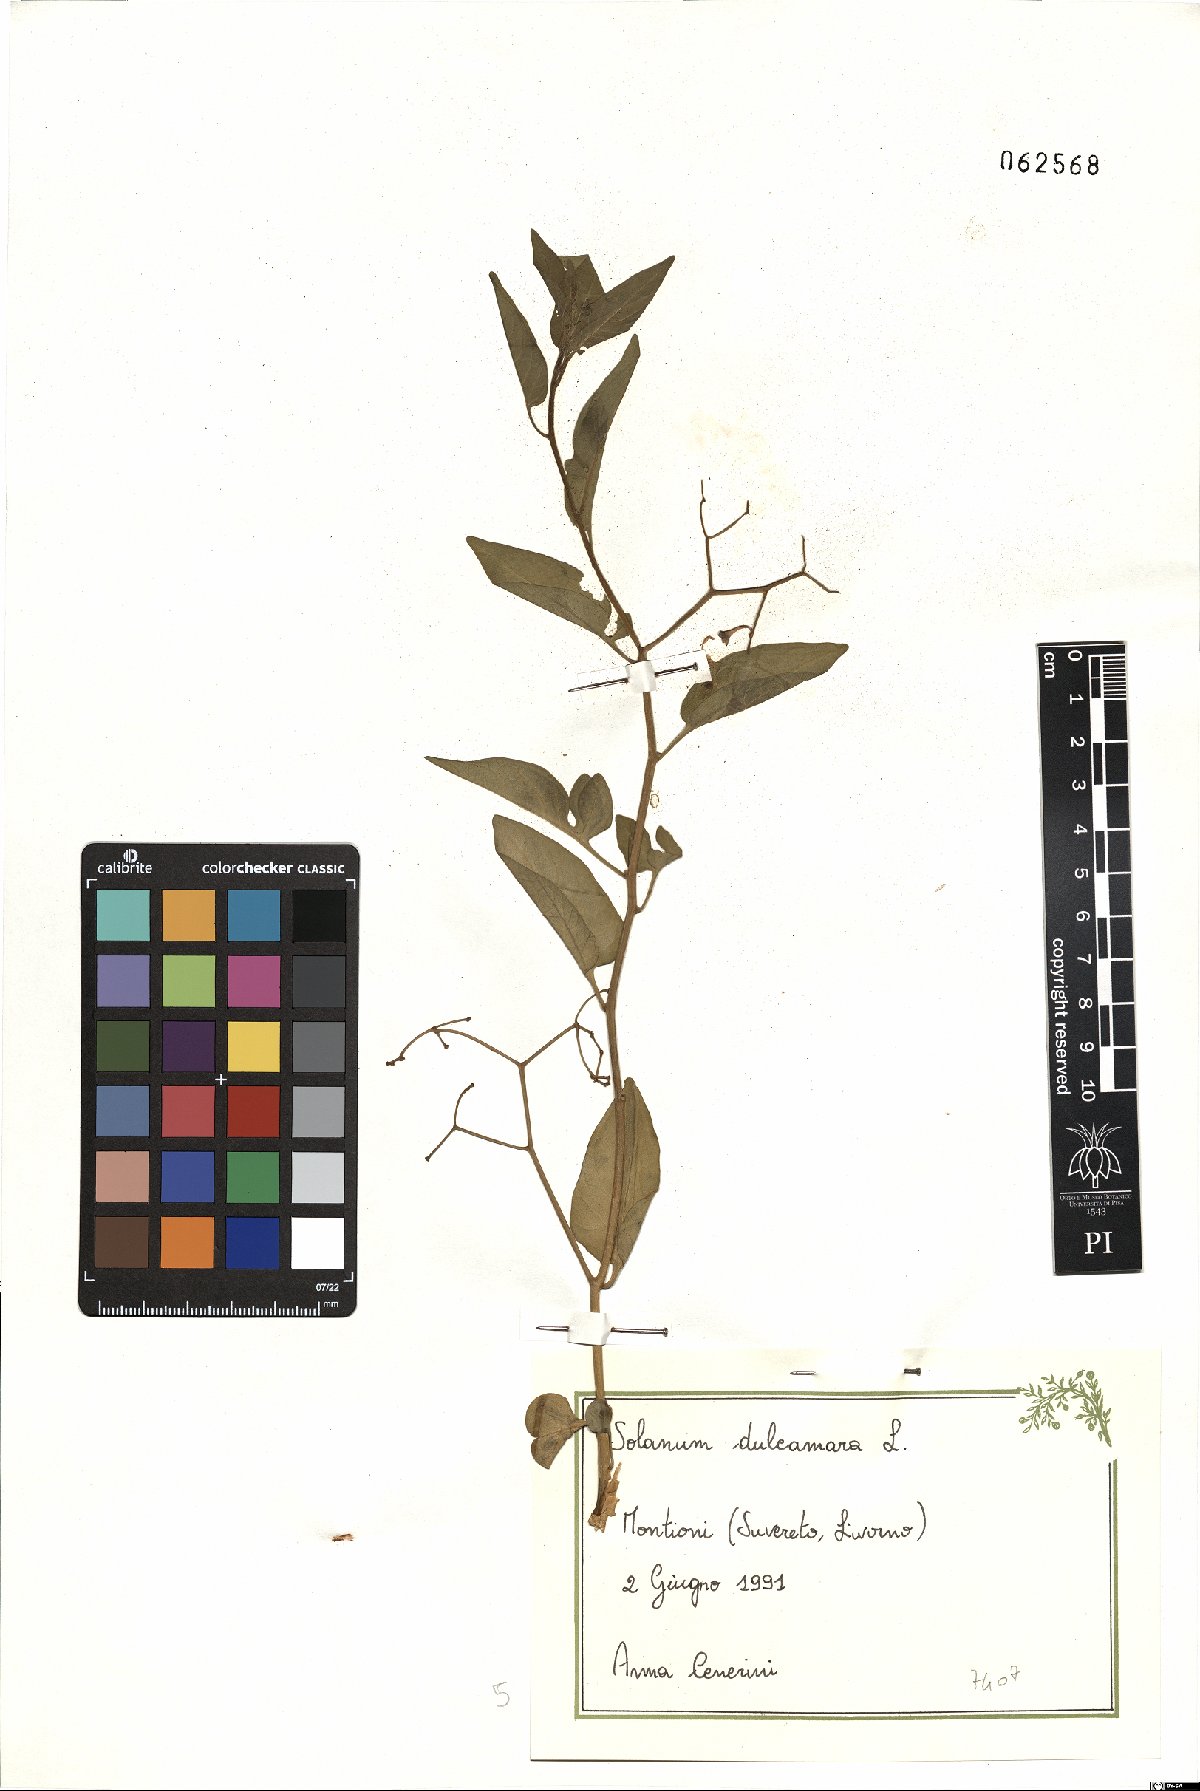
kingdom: Plantae
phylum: Tracheophyta
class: Magnoliopsida
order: Solanales
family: Solanaceae
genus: Solanum
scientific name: Solanum dulcamara
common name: Climbing nightshade
